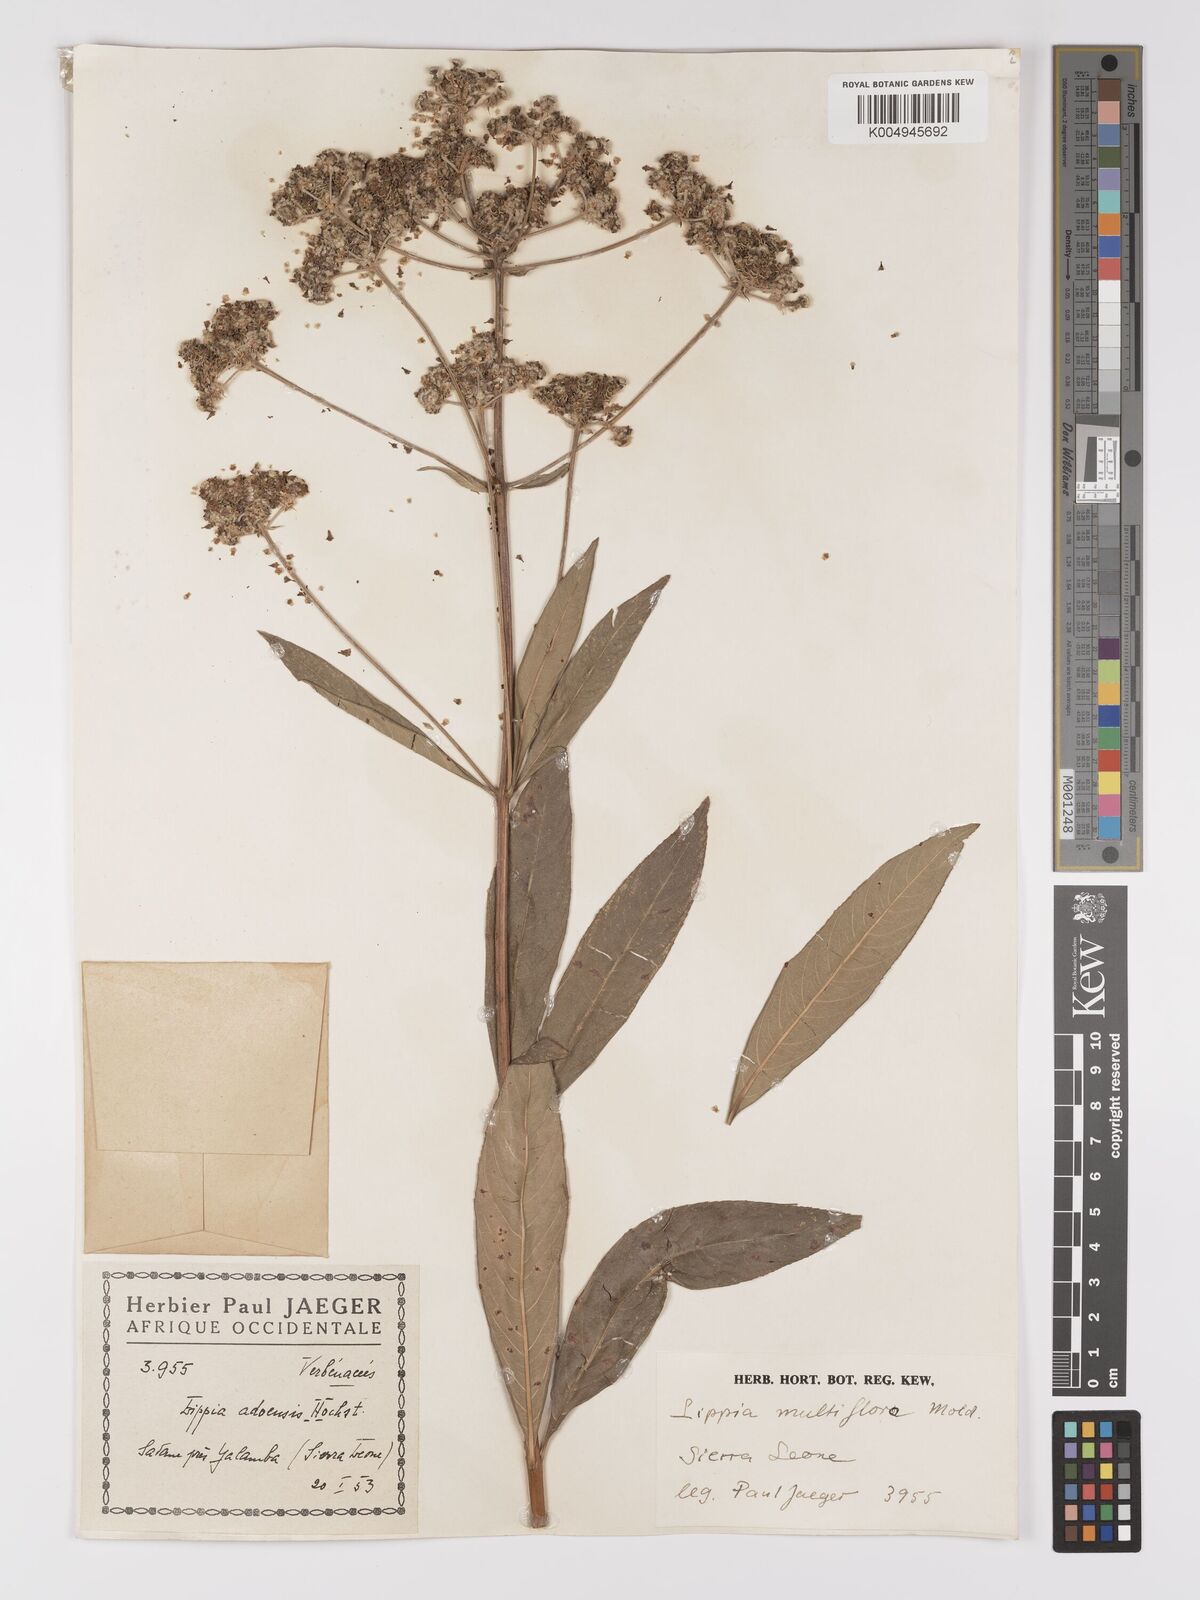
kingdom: Plantae
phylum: Tracheophyta
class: Magnoliopsida
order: Lamiales
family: Verbenaceae
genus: Lippia
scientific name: Lippia multiflora
